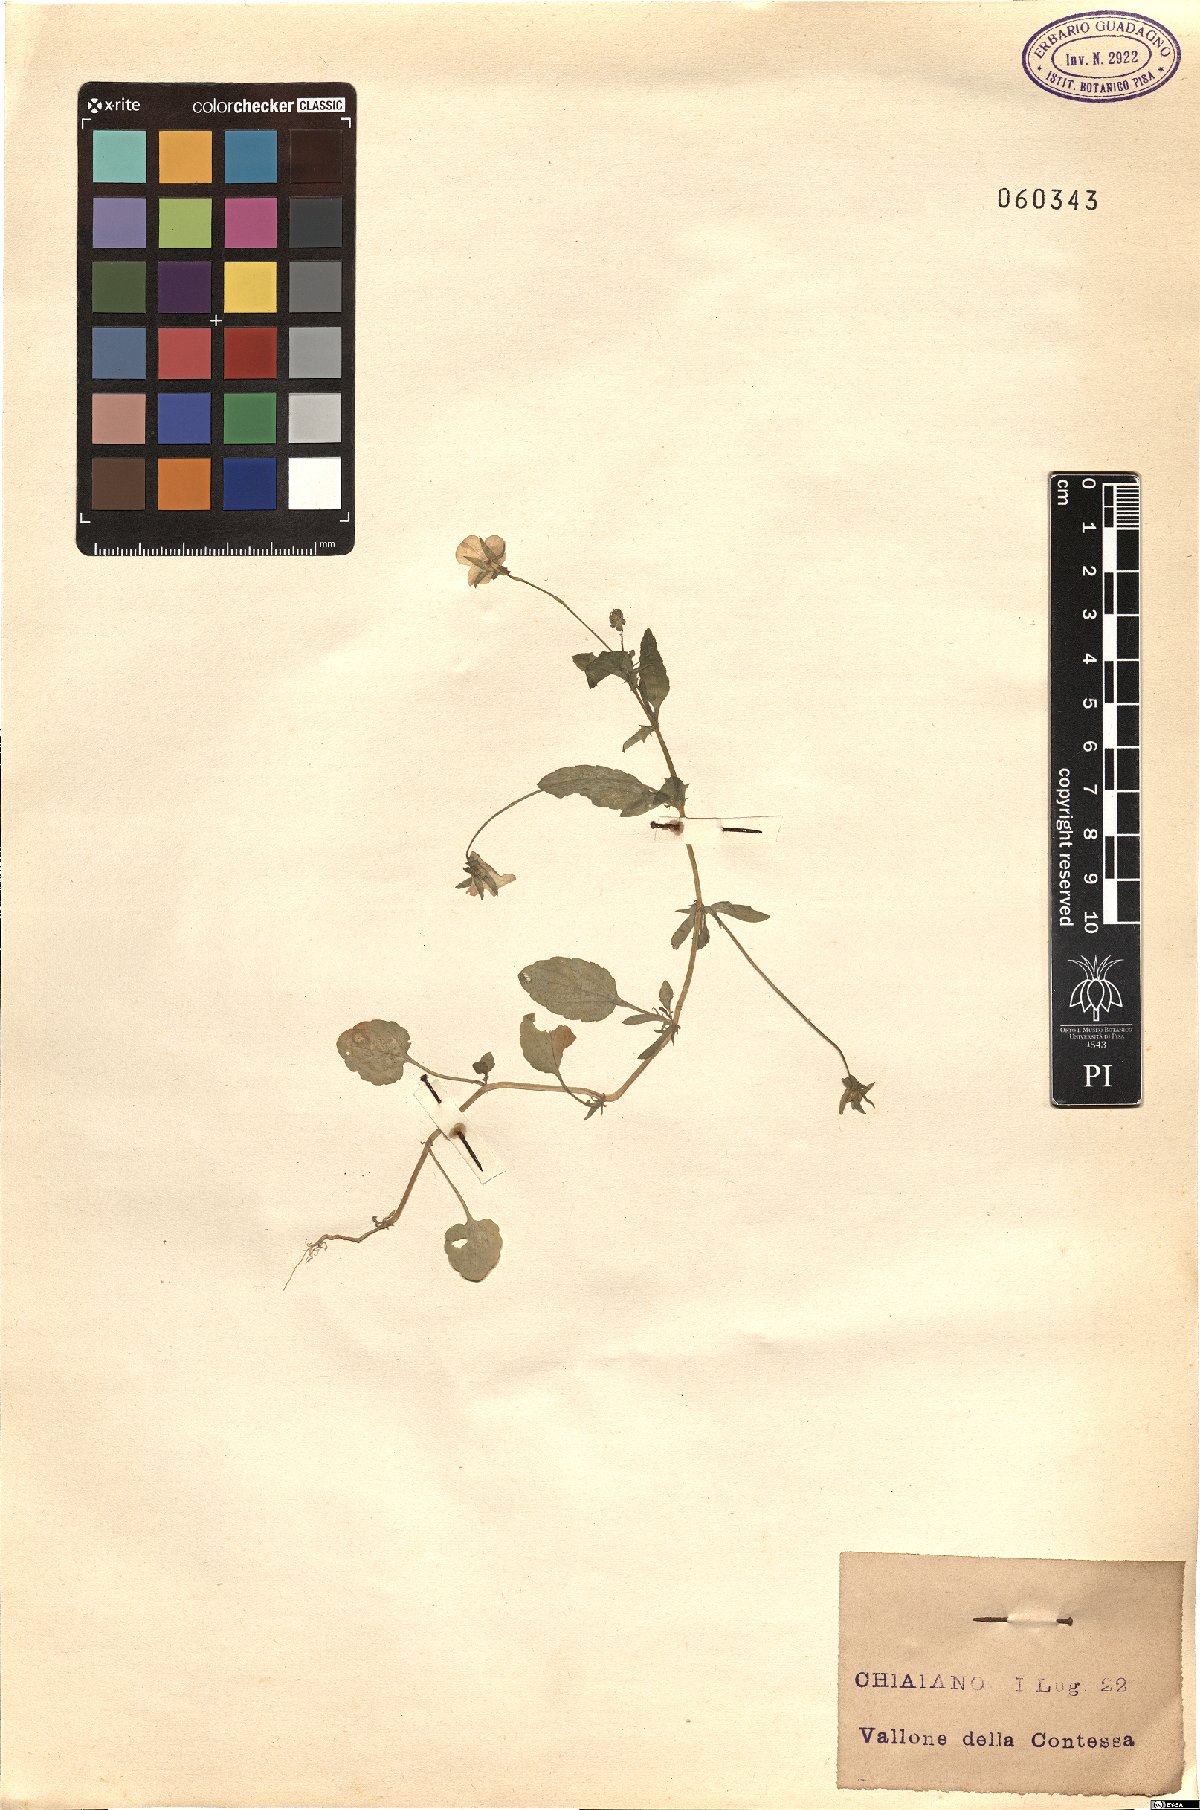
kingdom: Plantae
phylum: Tracheophyta
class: Magnoliopsida
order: Malpighiales
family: Violaceae
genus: Viola
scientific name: Viola arvensis
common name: Field pansy
